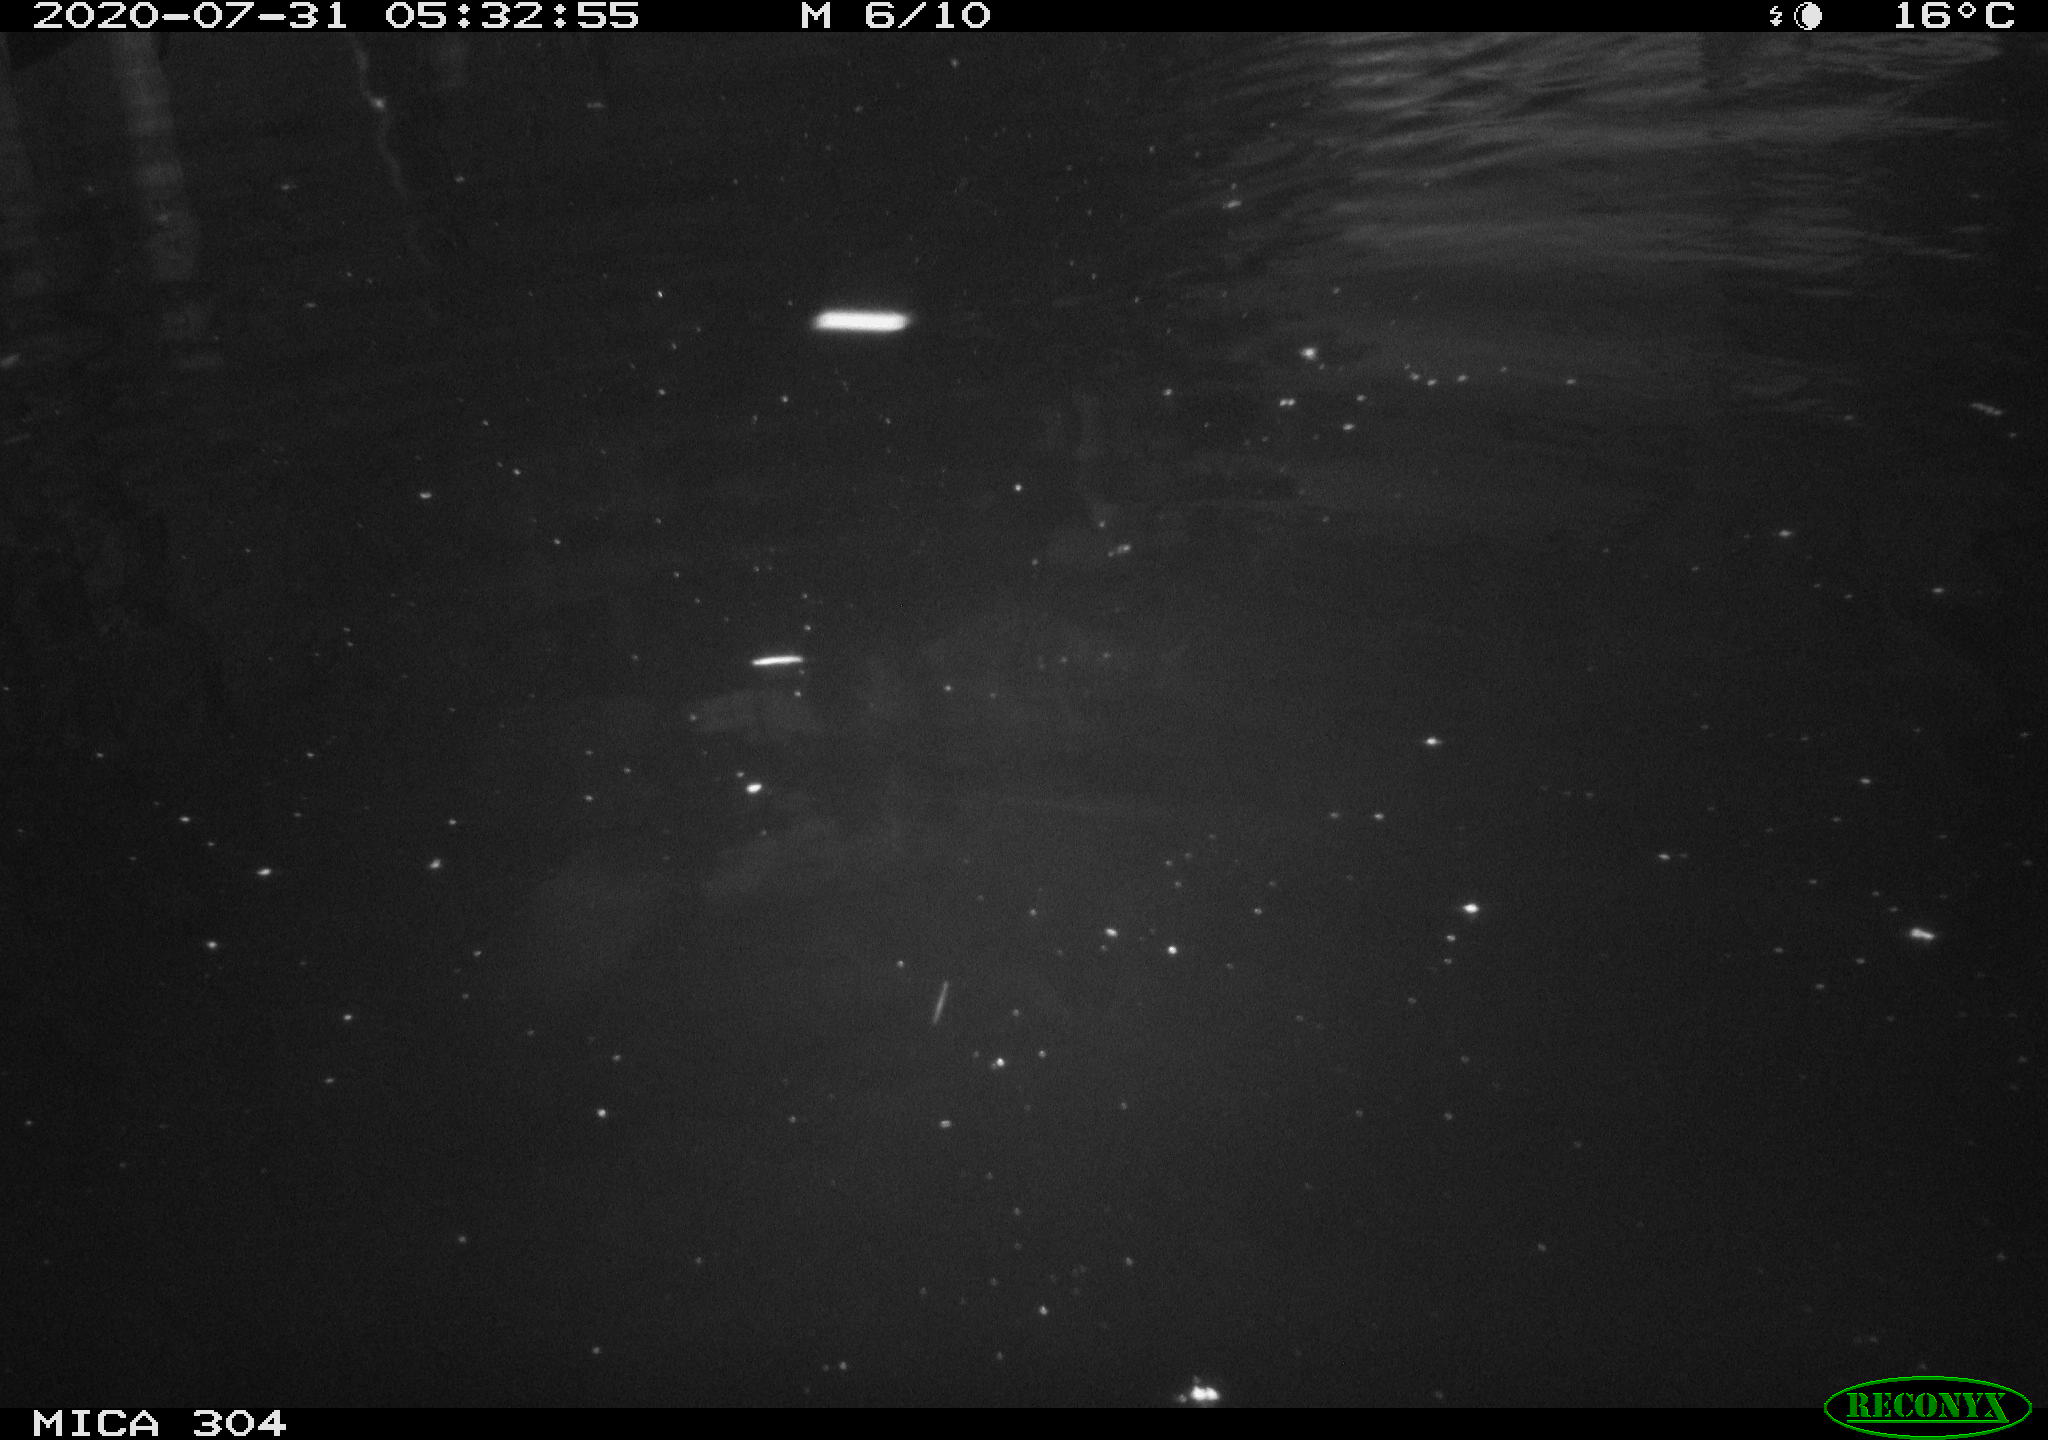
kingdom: Animalia
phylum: Chordata
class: Aves
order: Anseriformes
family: Anatidae
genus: Anas
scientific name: Anas platyrhynchos
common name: Mallard
